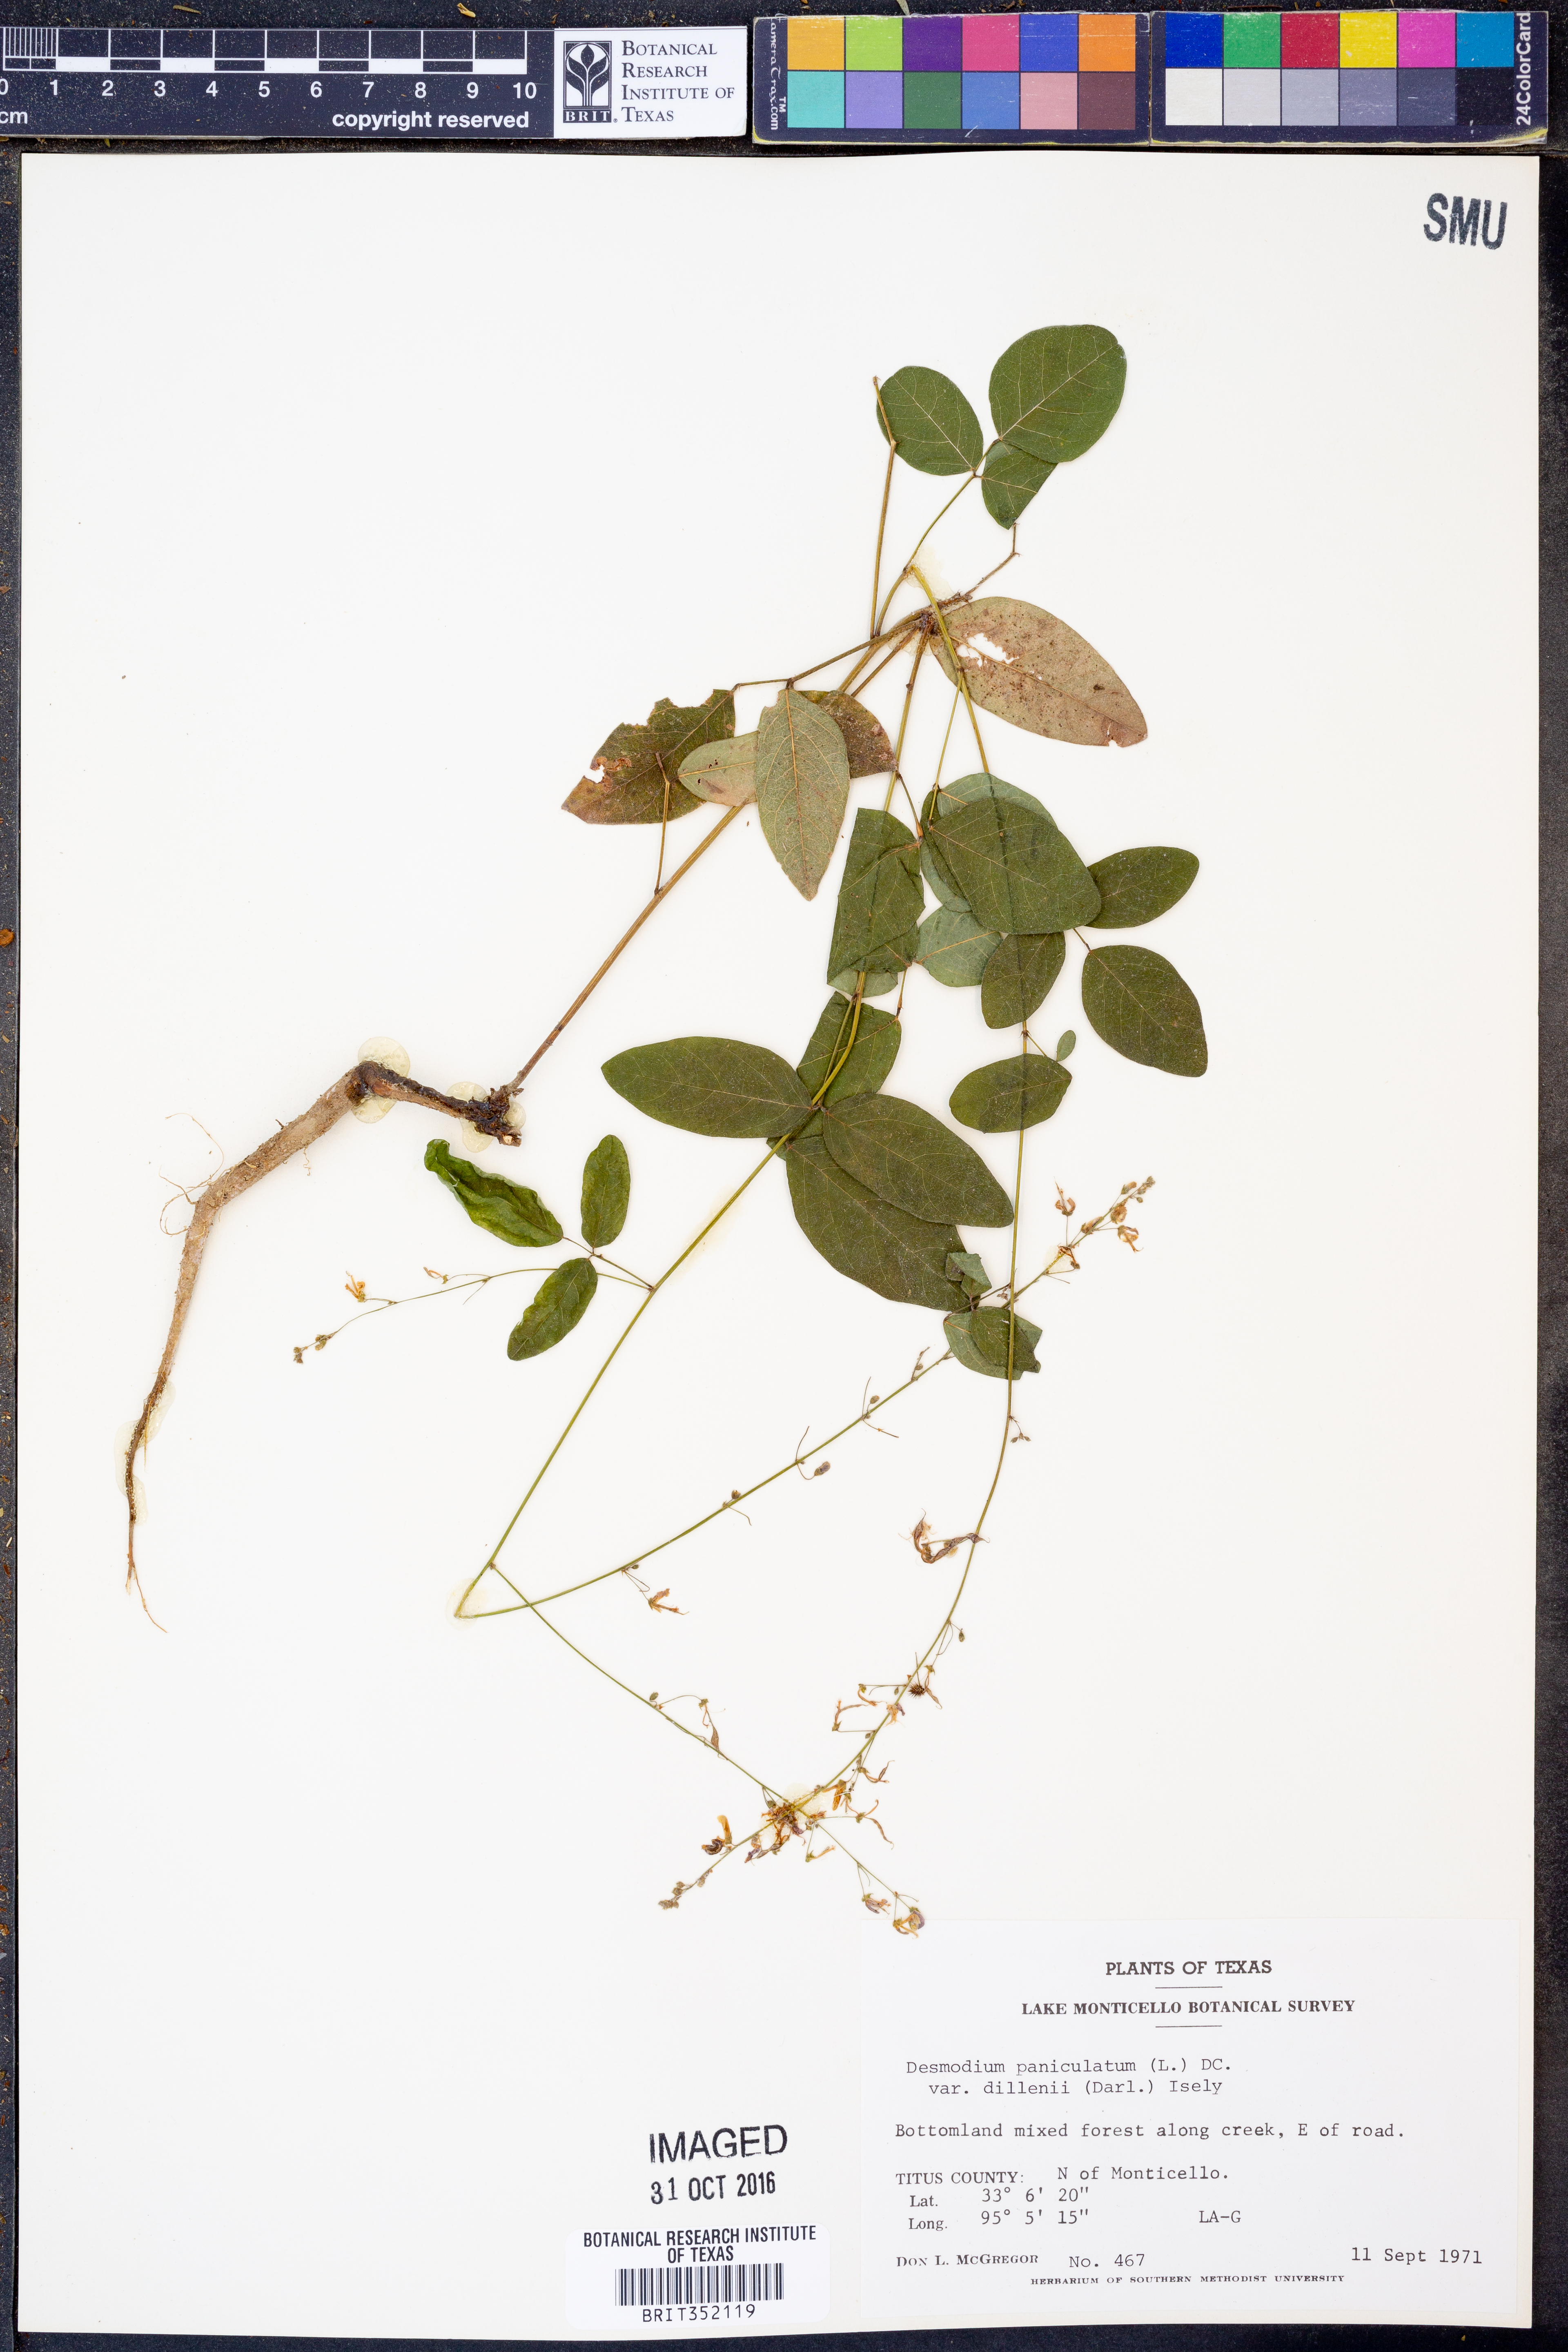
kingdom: Plantae
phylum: Tracheophyta
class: Magnoliopsida
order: Fabales
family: Fabaceae
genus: Hylodesmum
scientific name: Hylodesmum pauciflorum
